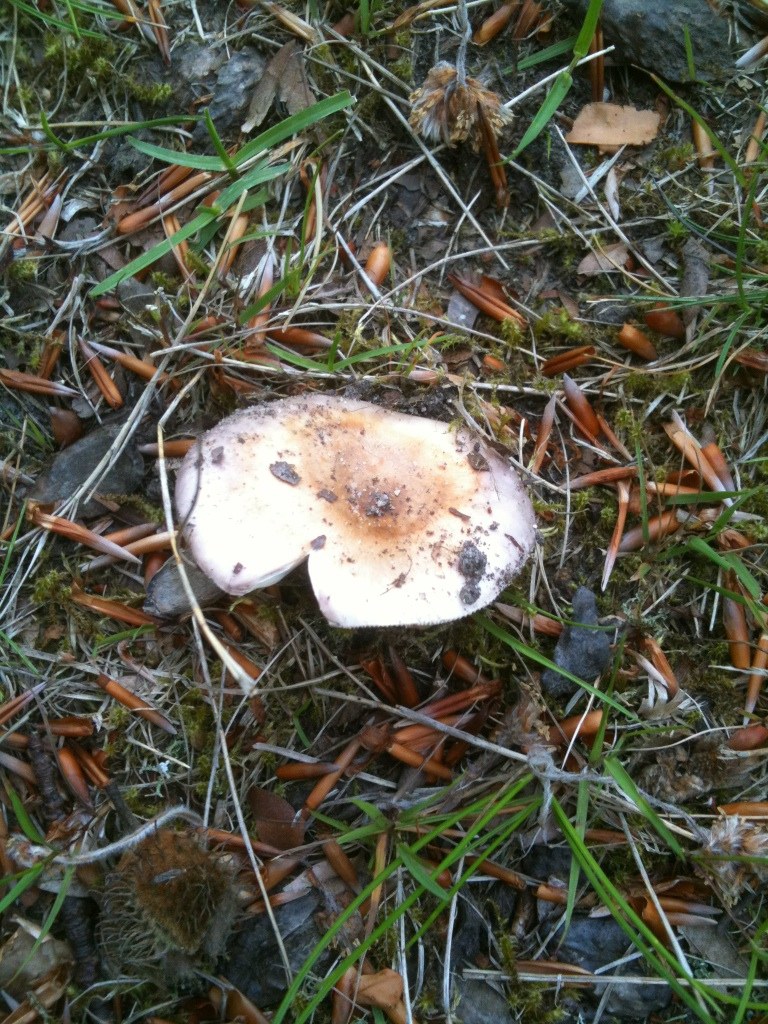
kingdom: Fungi
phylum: Basidiomycota
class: Agaricomycetes
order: Russulales
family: Russulaceae
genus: Russula
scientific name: Russula cyanoxantha
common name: broget skørhat
